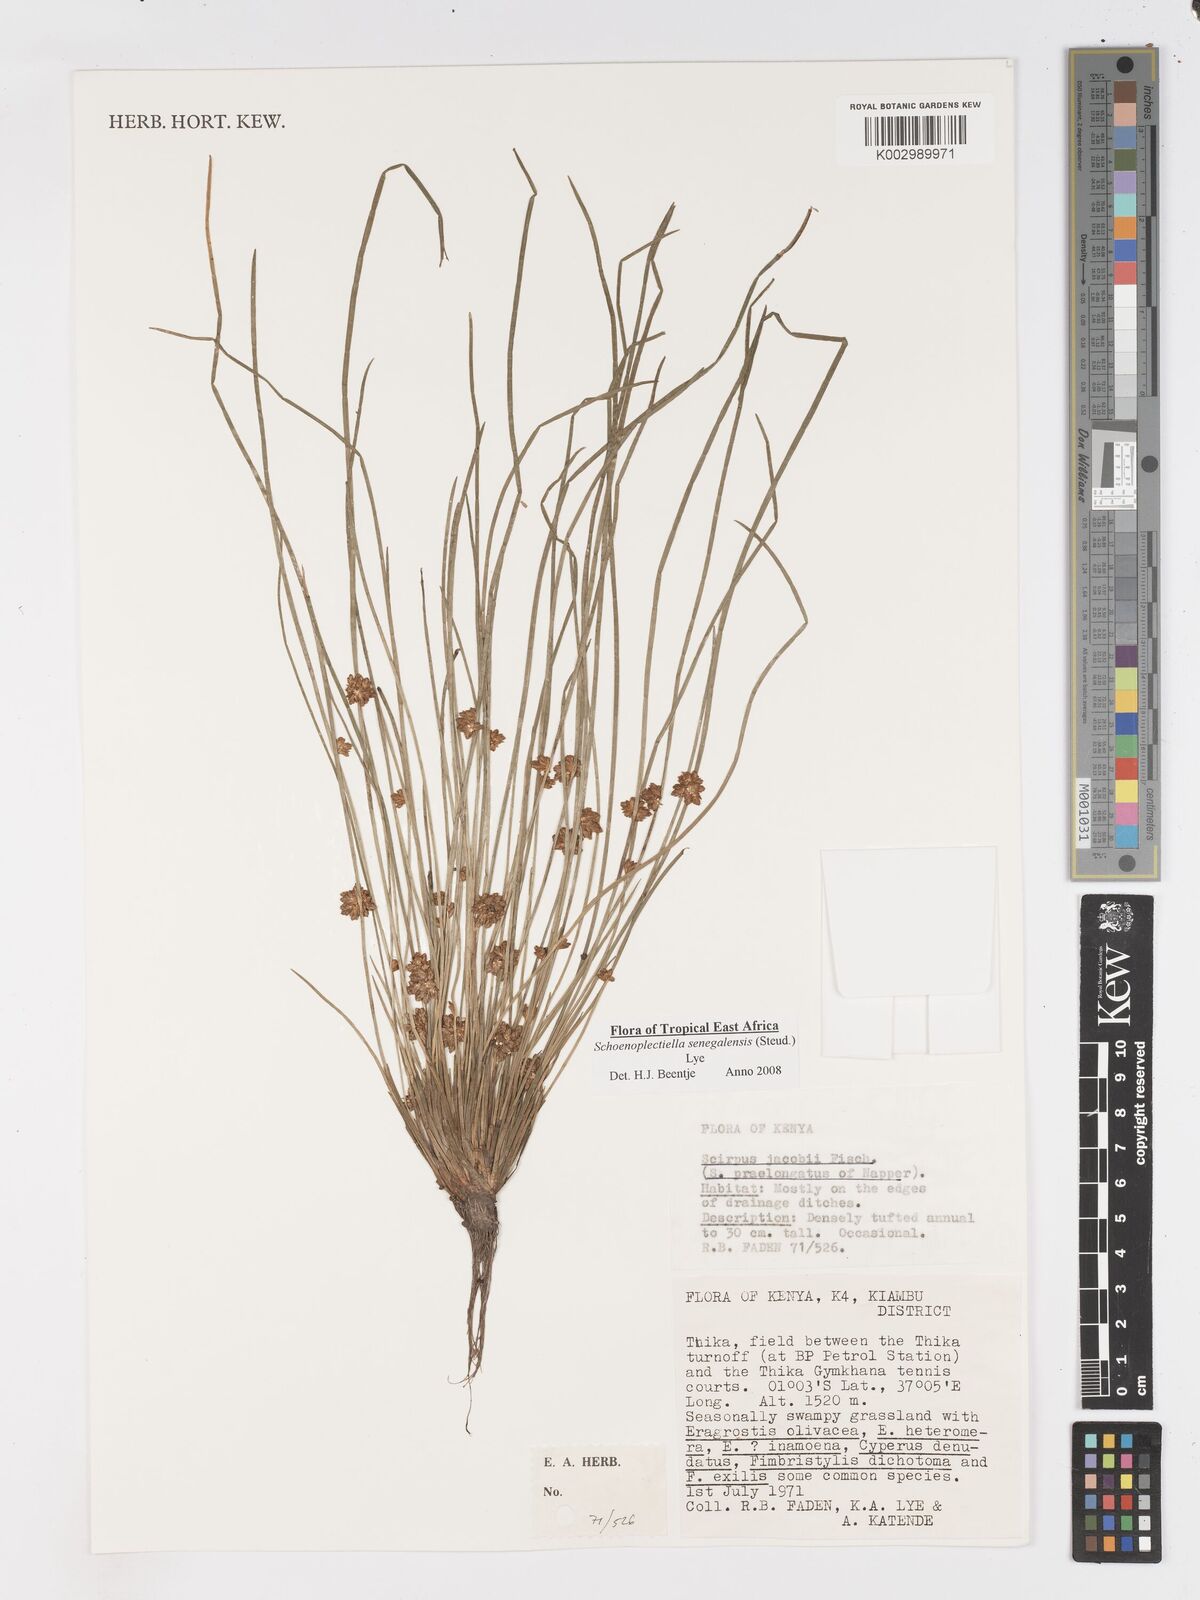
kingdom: Plantae
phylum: Tracheophyta
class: Liliopsida
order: Poales
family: Cyperaceae
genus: Schoenoplectiella
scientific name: Schoenoplectiella senegalensis
